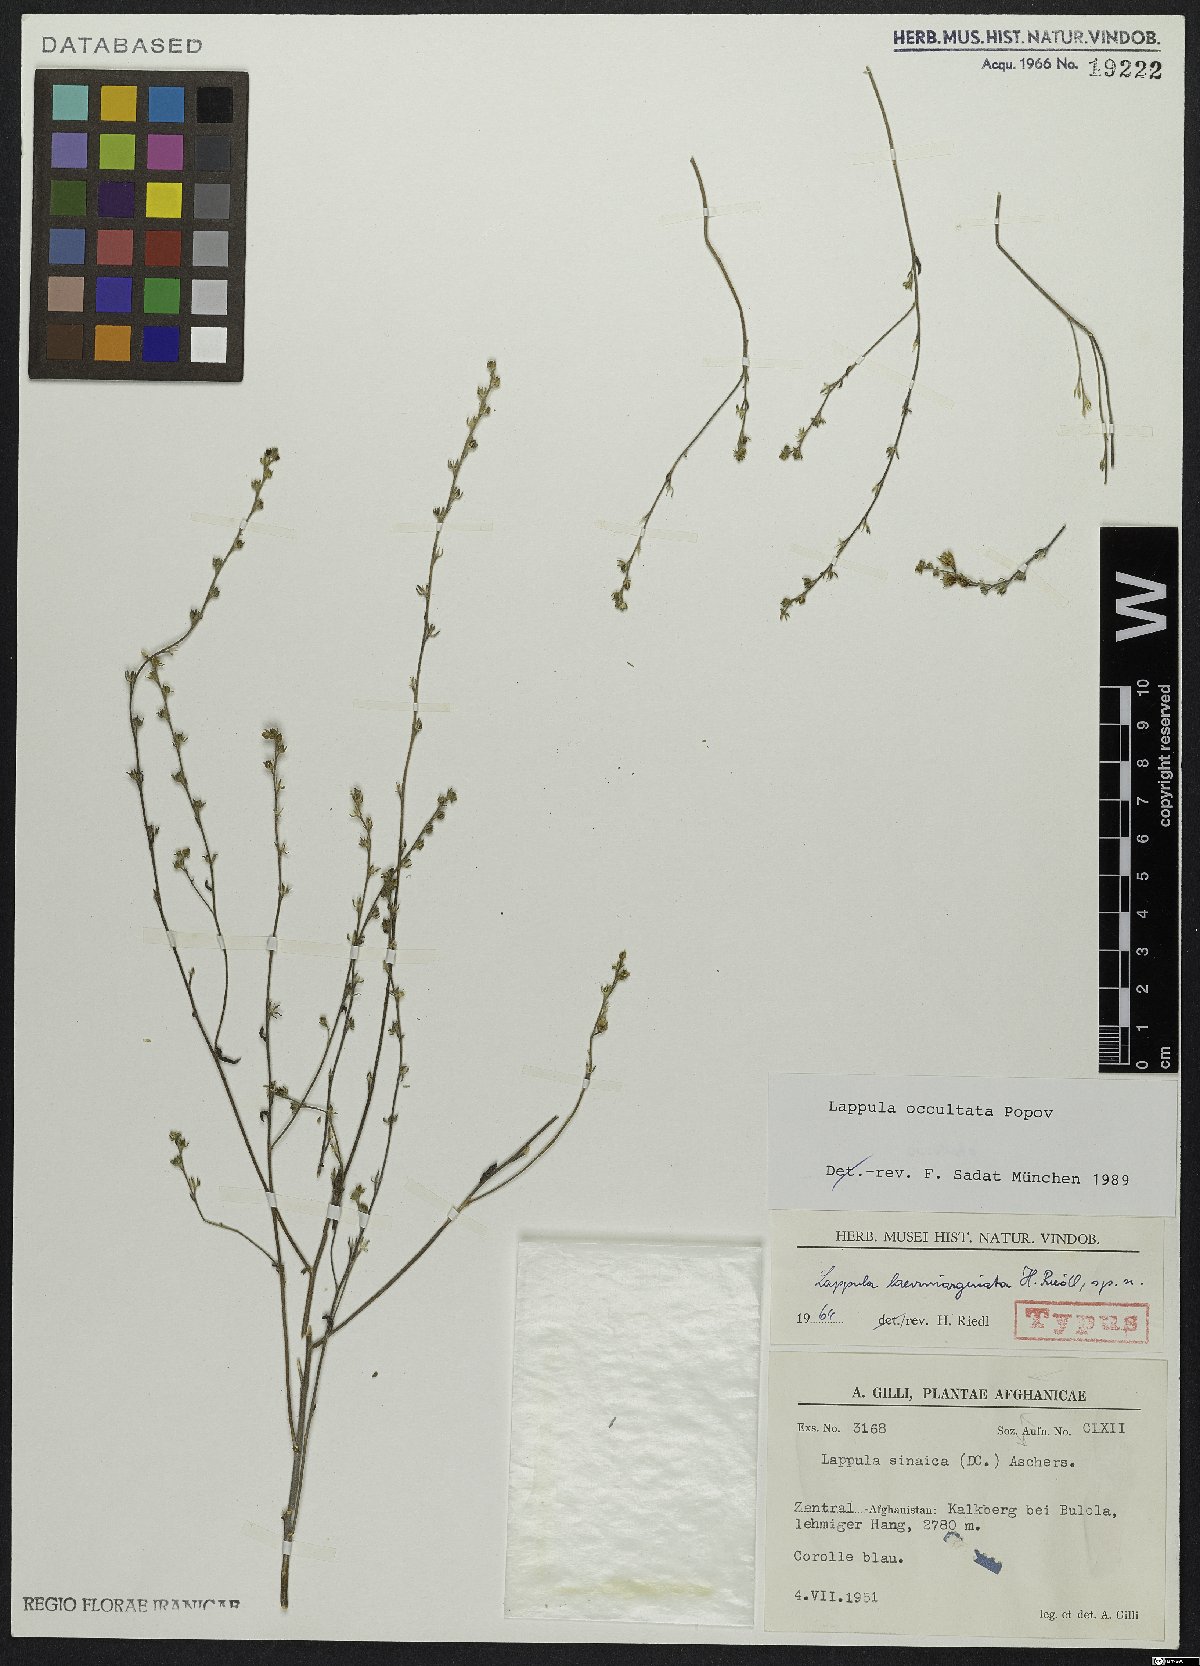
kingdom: Plantae
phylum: Tracheophyta
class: Magnoliopsida
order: Boraginales
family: Boraginaceae
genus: Lappula
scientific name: Lappula occultata
